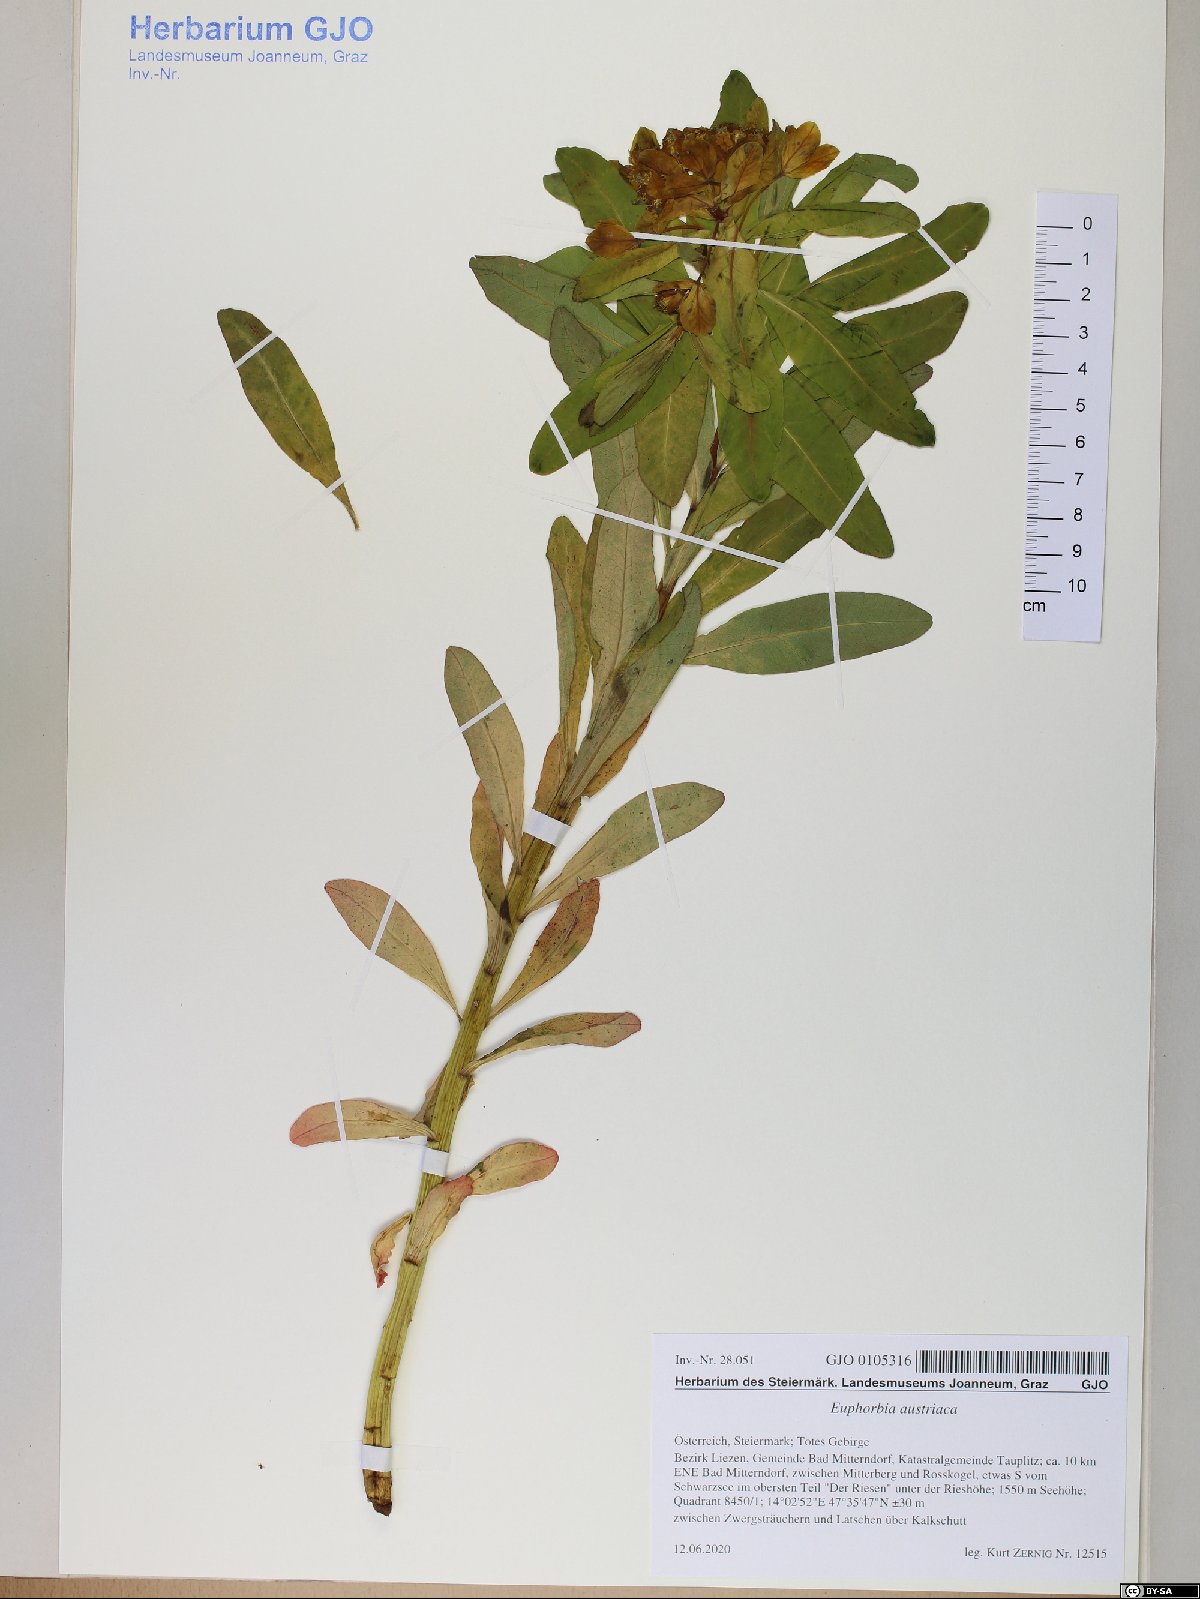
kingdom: Plantae
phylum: Tracheophyta
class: Magnoliopsida
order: Malpighiales
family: Euphorbiaceae
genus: Euphorbia
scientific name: Euphorbia austriaca
